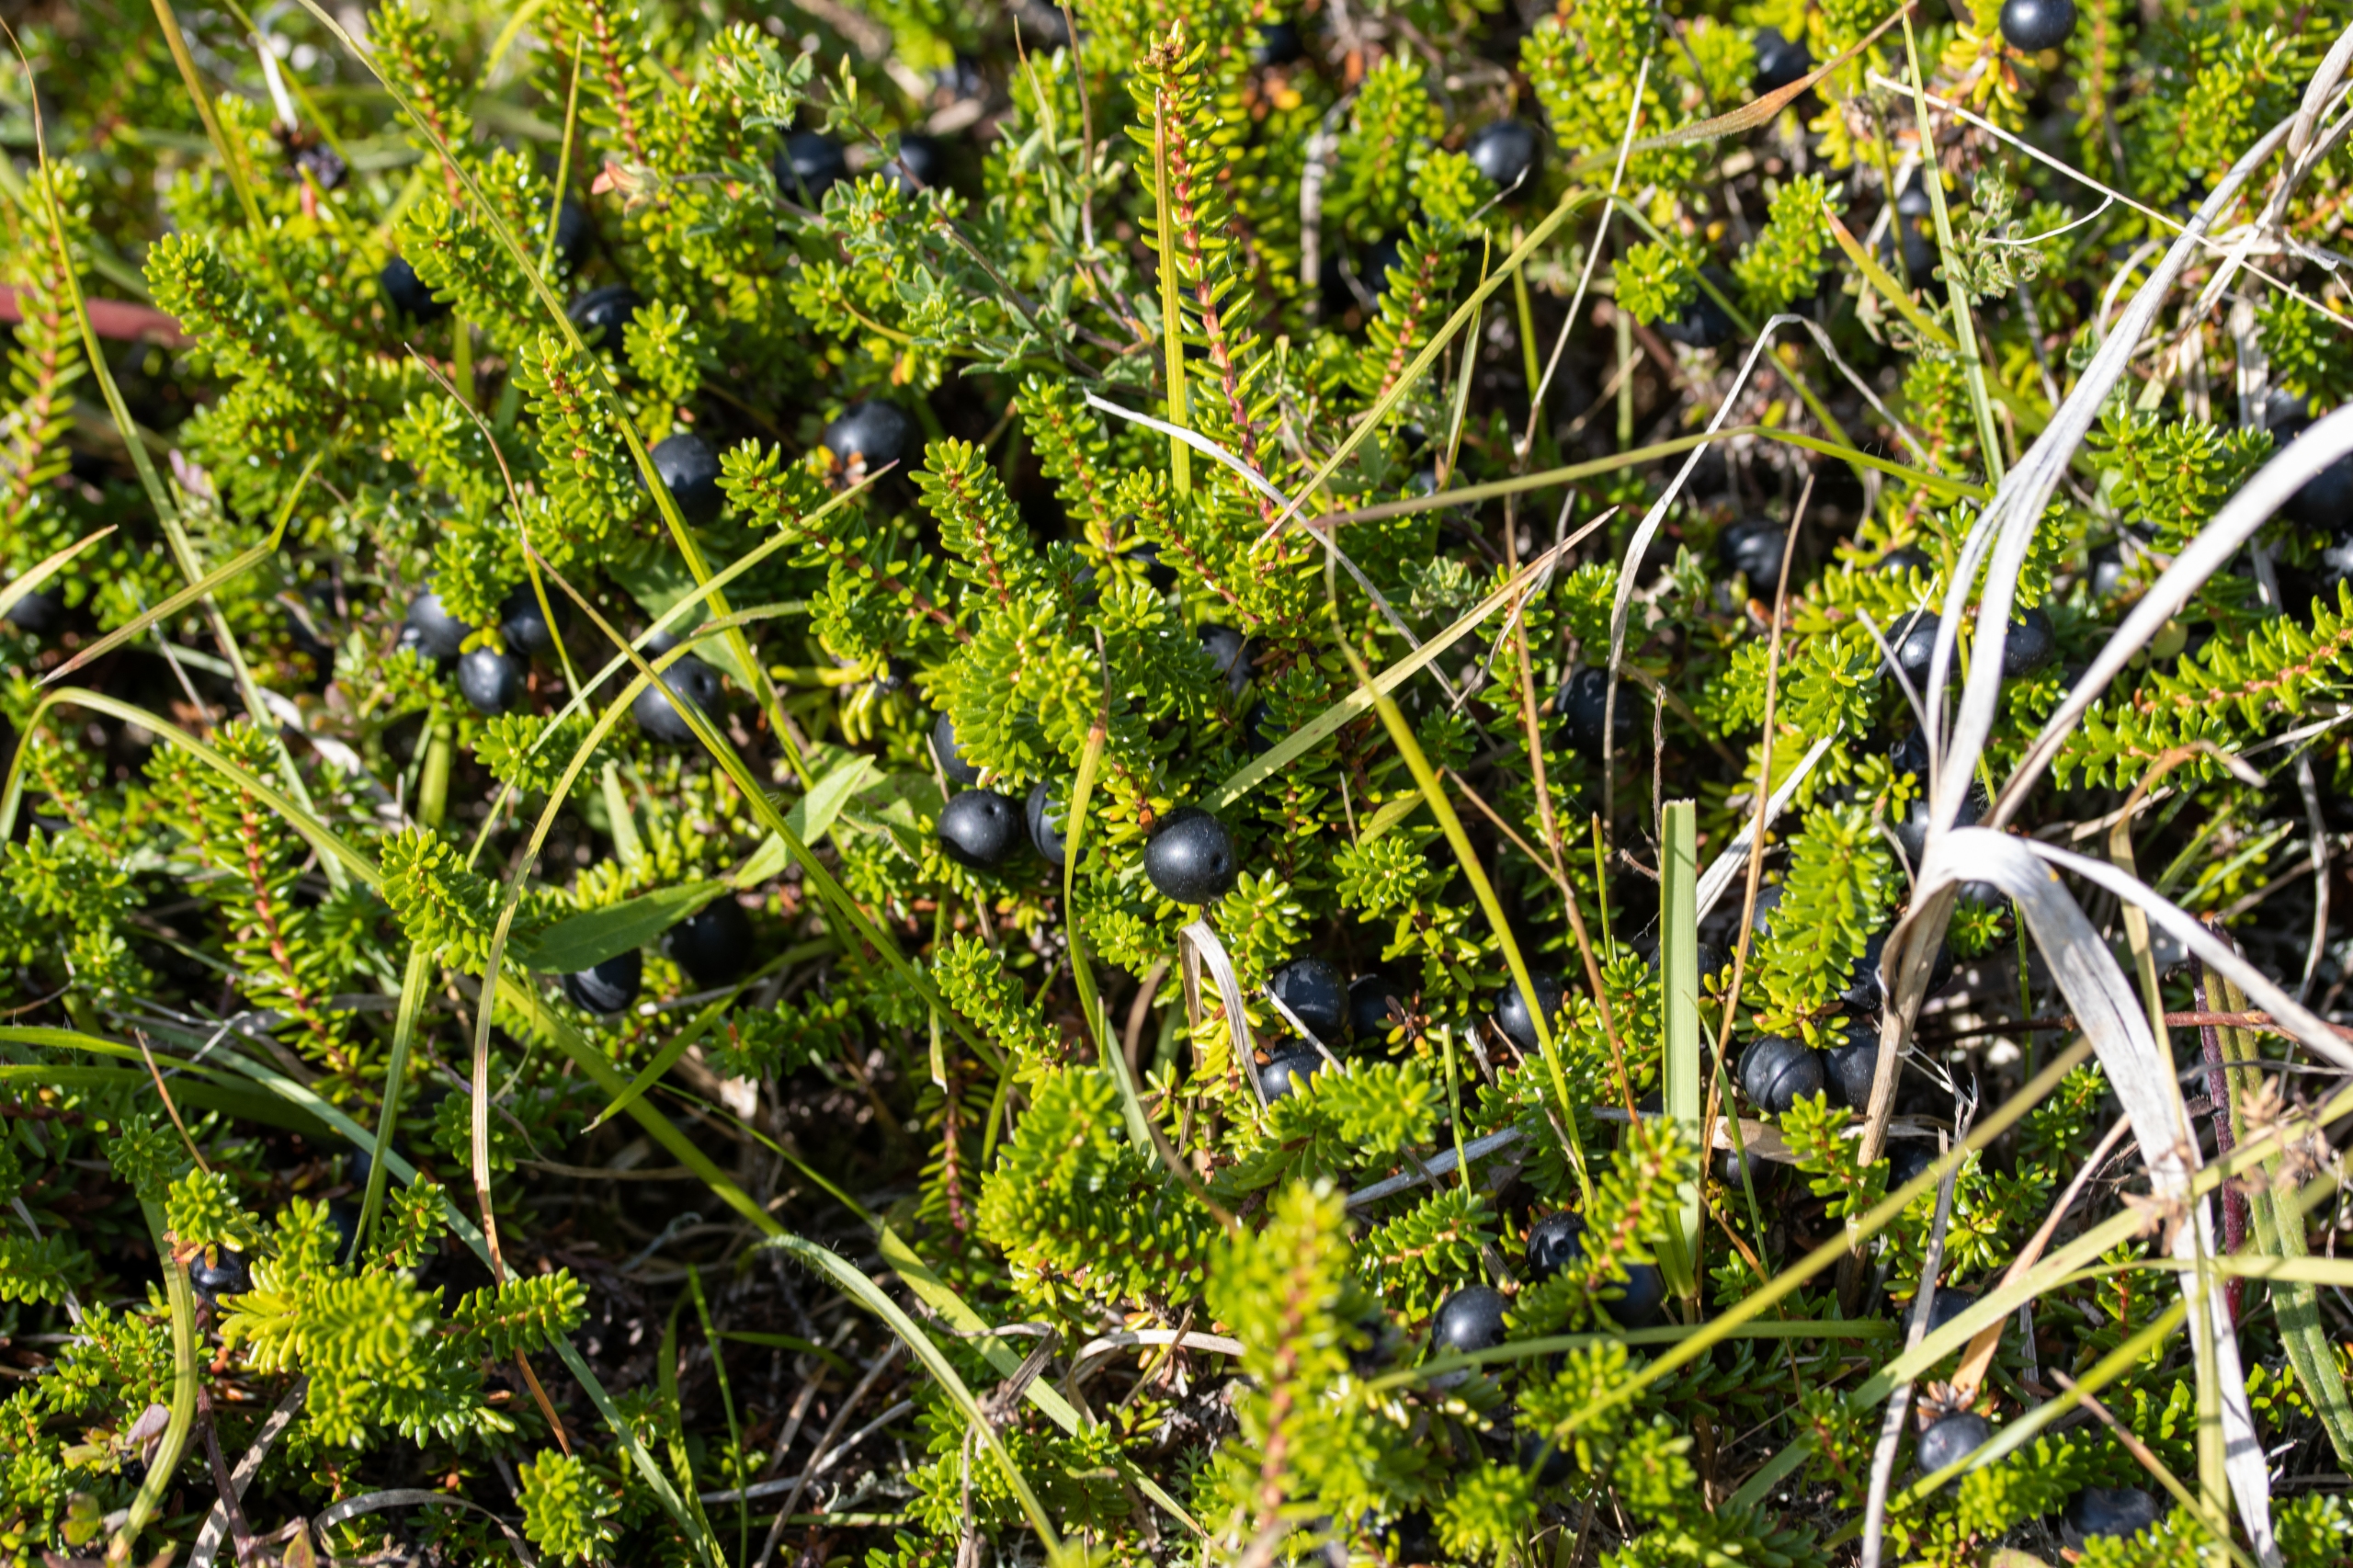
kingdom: Plantae
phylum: Tracheophyta
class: Magnoliopsida
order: Ericales
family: Ericaceae
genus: Empetrum
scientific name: Empetrum nigrum
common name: Revling
